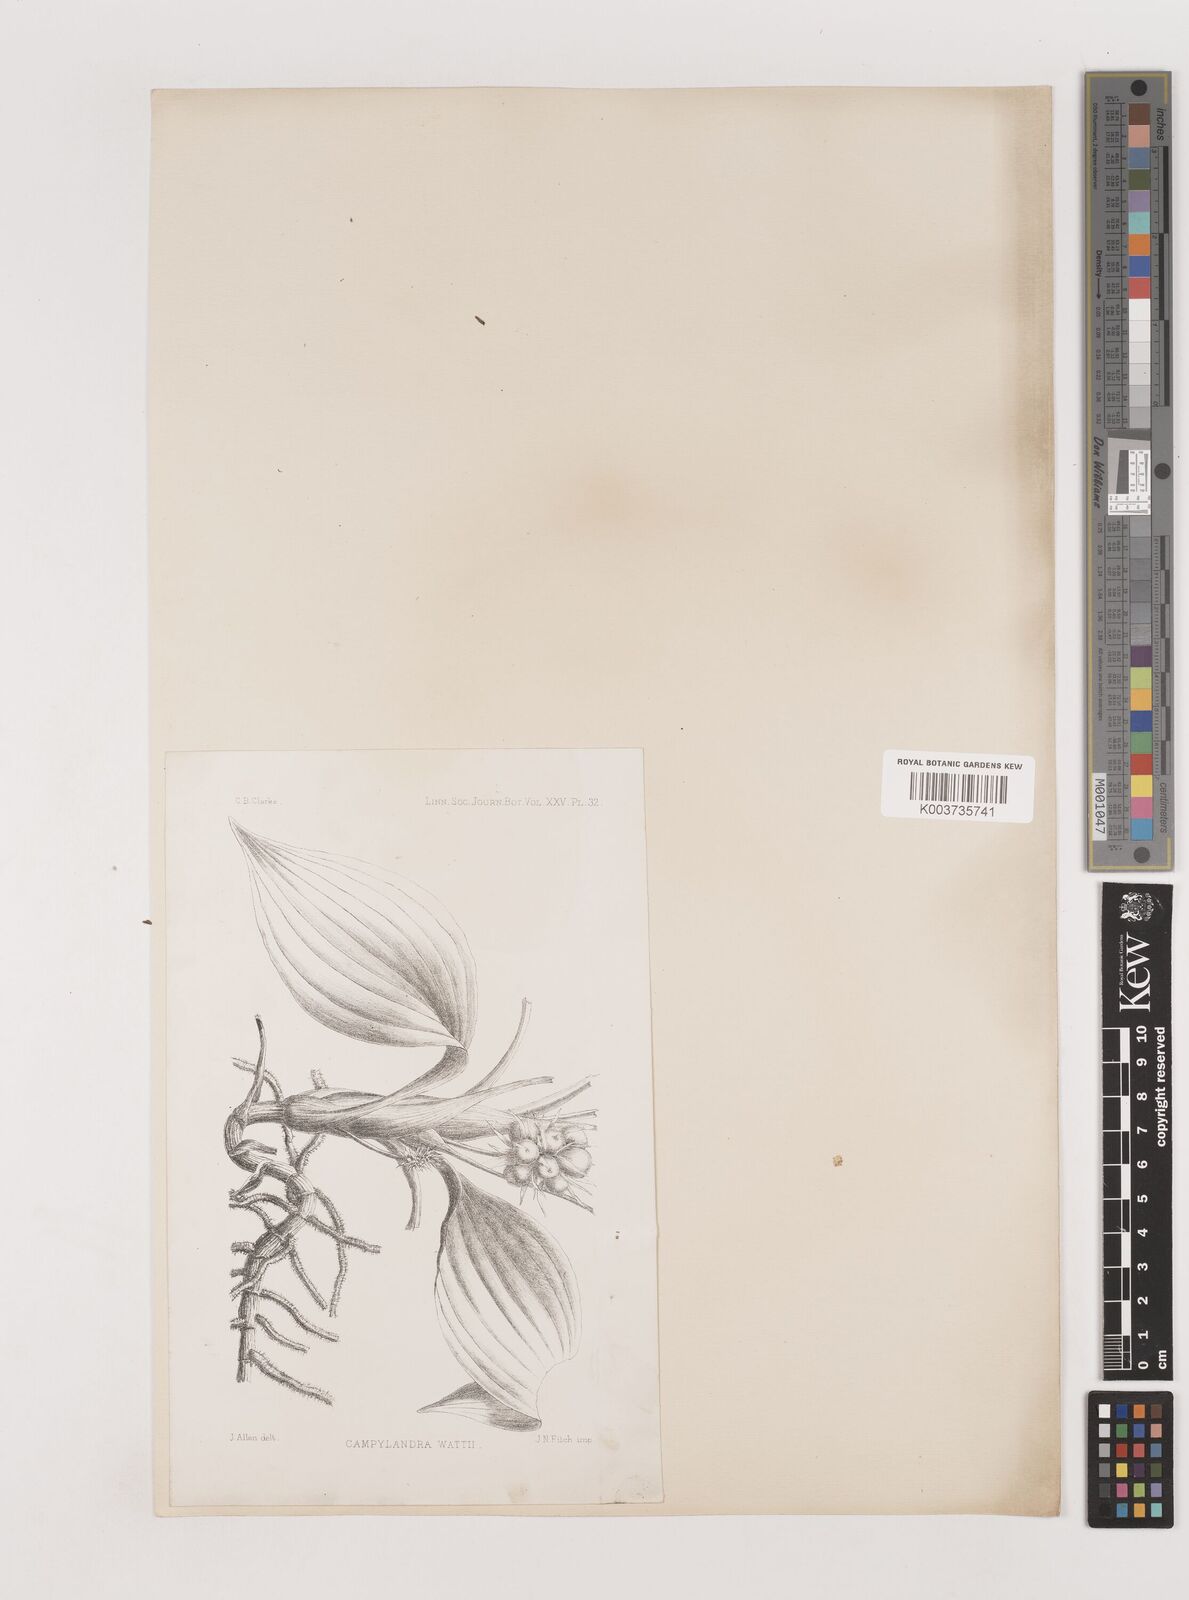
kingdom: Plantae
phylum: Tracheophyta
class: Liliopsida
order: Asparagales
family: Asparagaceae
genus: Rohdea
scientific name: Rohdea wattii
